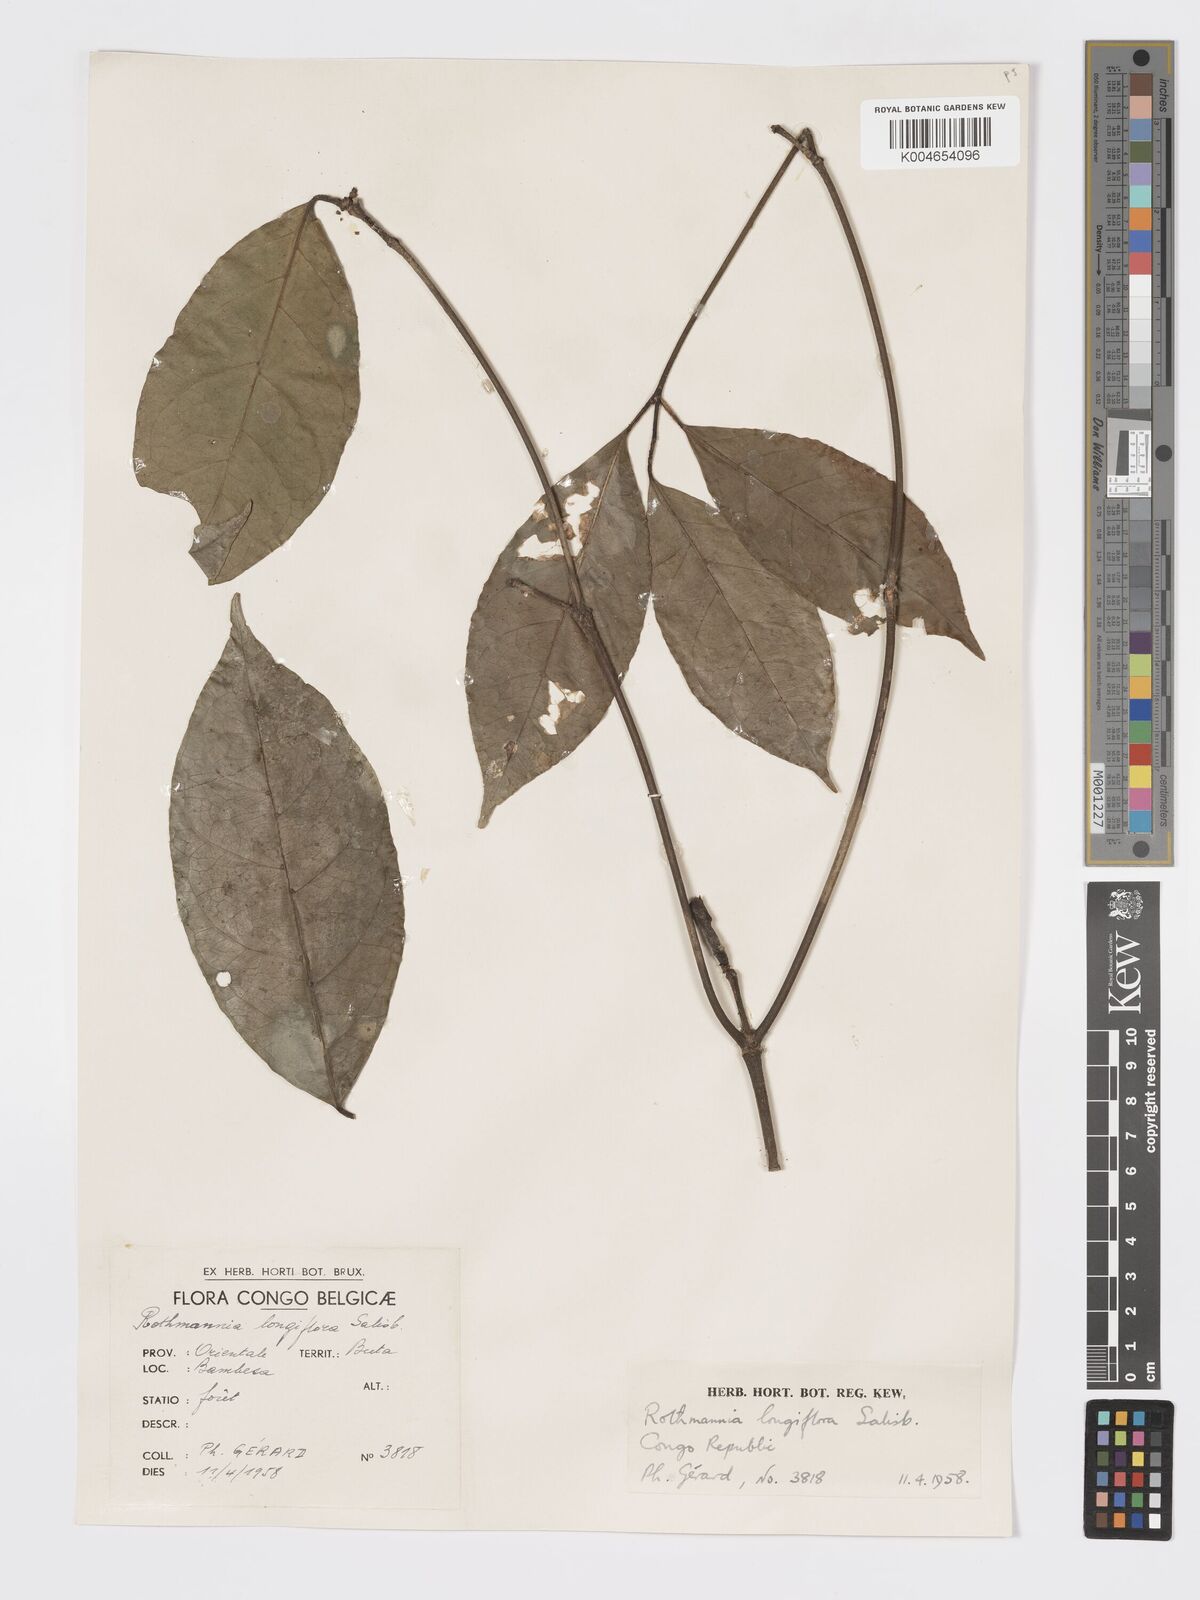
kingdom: Plantae
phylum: Tracheophyta
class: Magnoliopsida
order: Gentianales
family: Rubiaceae
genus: Rothmannia
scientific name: Rothmannia longiflora
